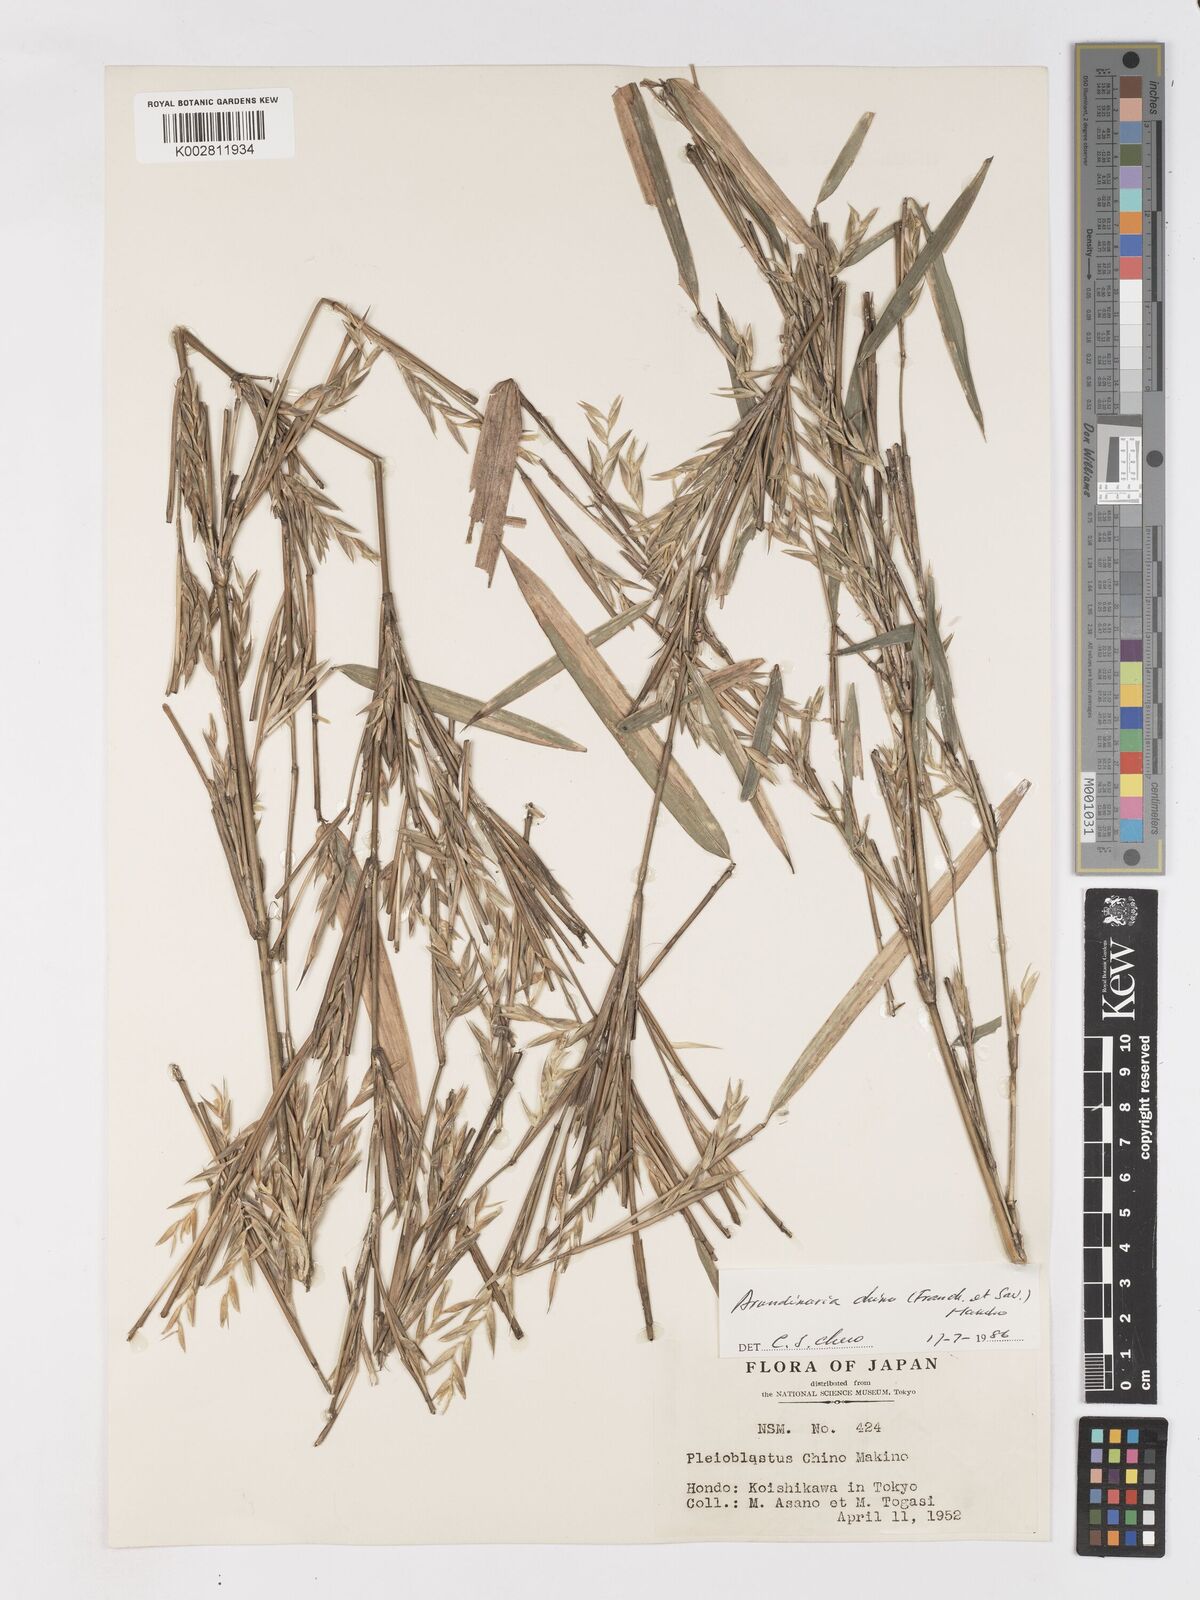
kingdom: Plantae
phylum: Tracheophyta
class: Liliopsida
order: Poales
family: Poaceae
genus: Pleioblastus
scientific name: Pleioblastus argenteostriatus
